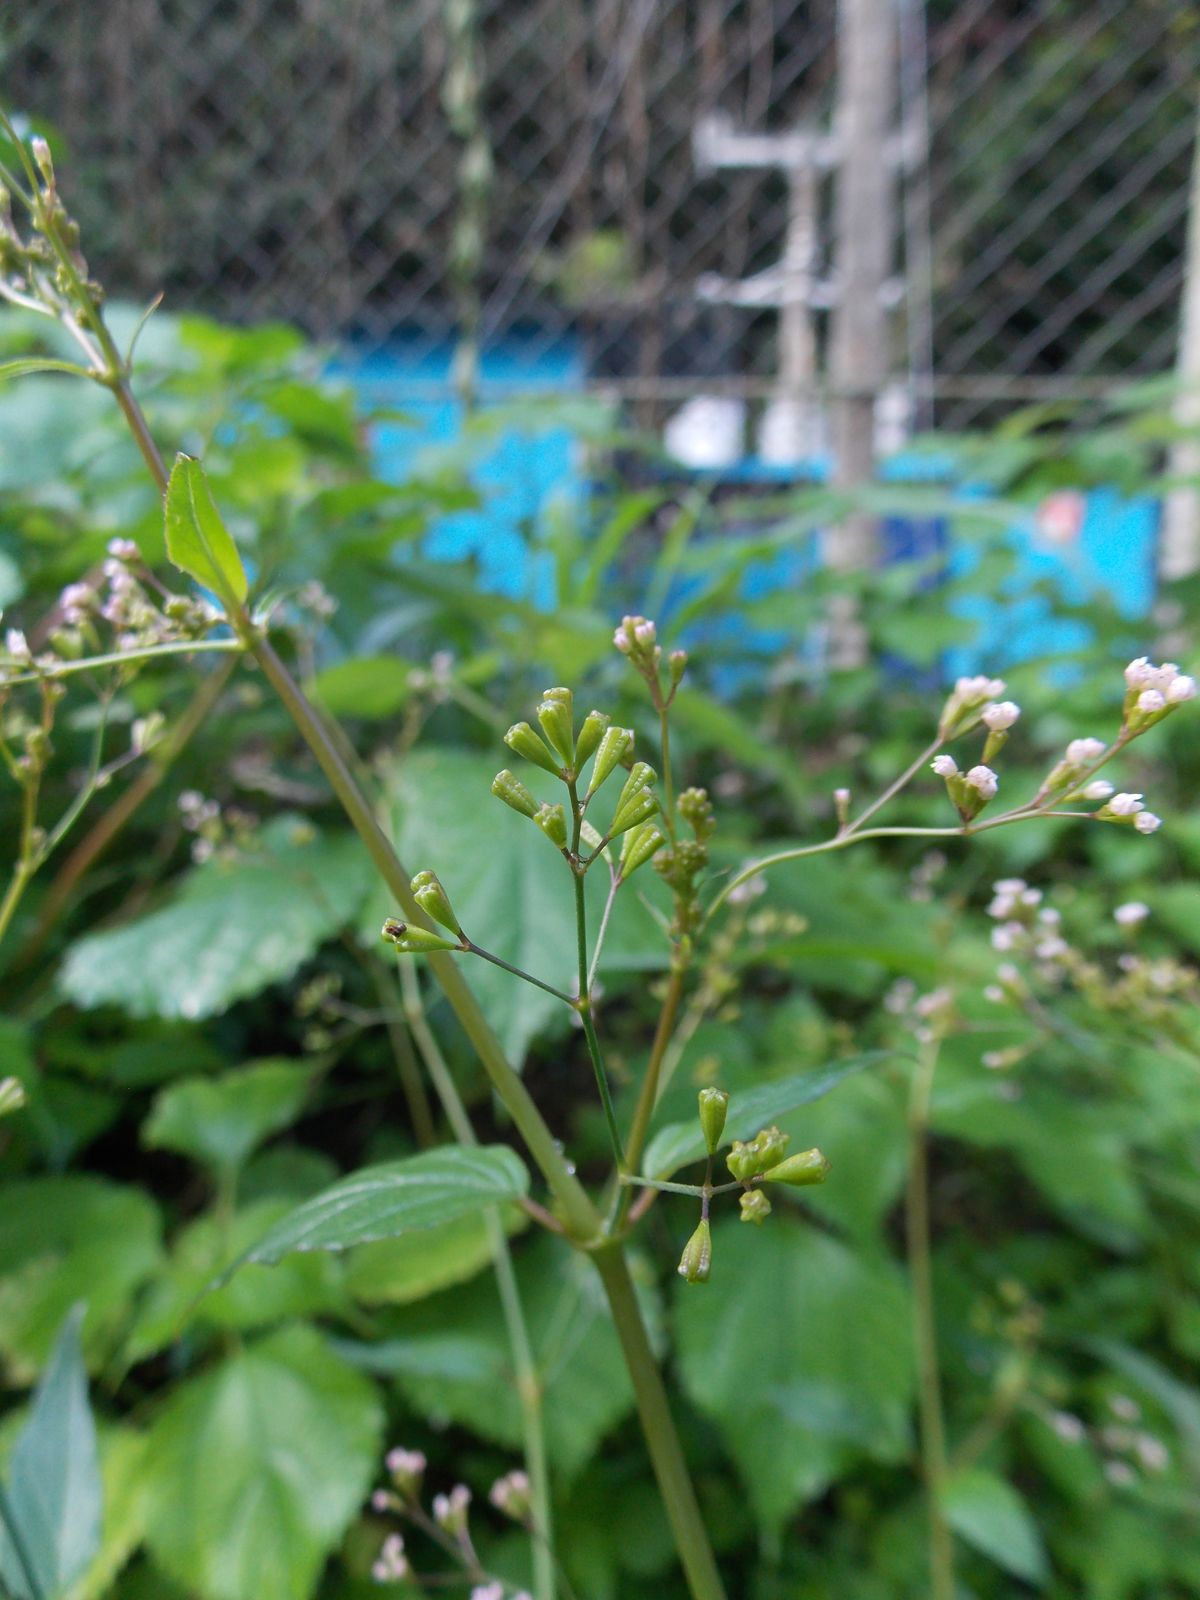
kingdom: Plantae
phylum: Tracheophyta
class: Magnoliopsida
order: Caryophyllales
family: Nyctaginaceae
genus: Boerhavia
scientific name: Boerhavia diffusa
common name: Red spiderling
